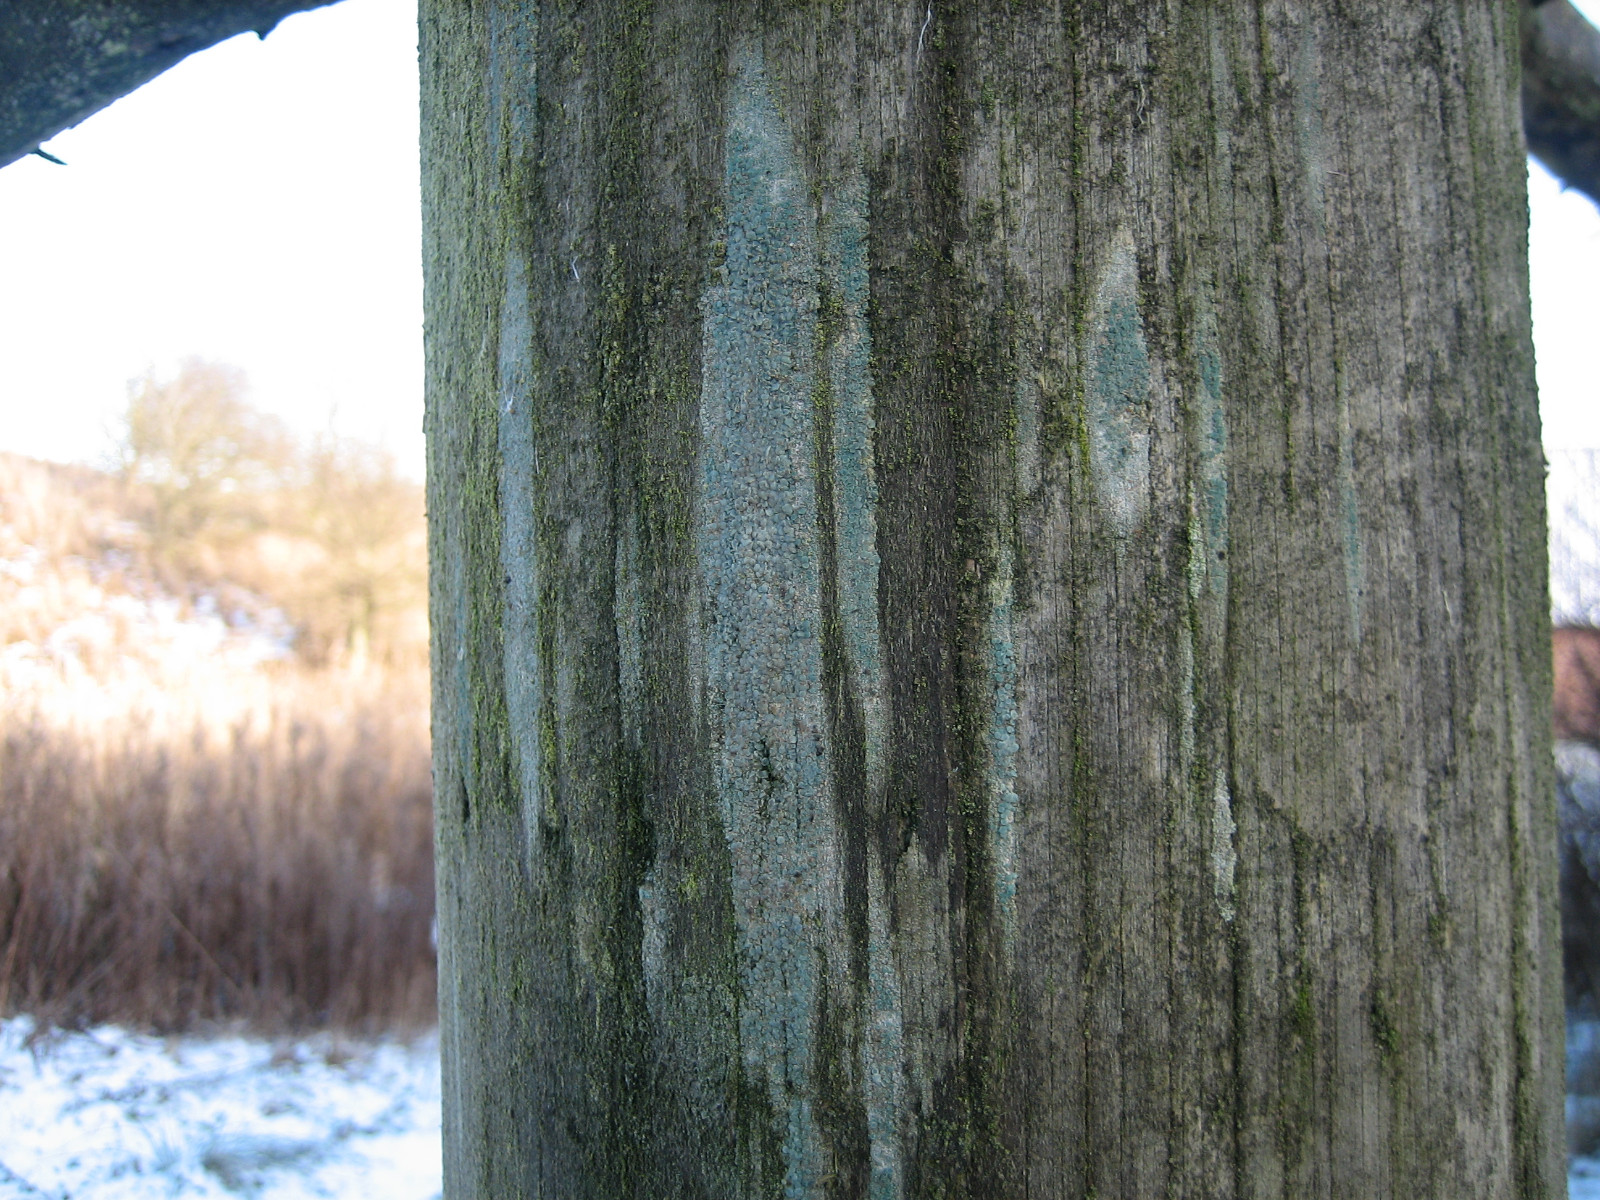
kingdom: Fungi
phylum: Ascomycota
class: Lecanoromycetes
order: Lecanorales
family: Lecanoraceae
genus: Lecanora
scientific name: Lecanora
